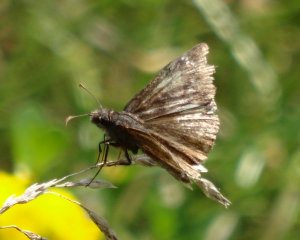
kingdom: Animalia
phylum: Arthropoda
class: Insecta
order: Lepidoptera
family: Hesperiidae
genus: Gesta
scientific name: Gesta
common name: Wild Indigo Duskywing
